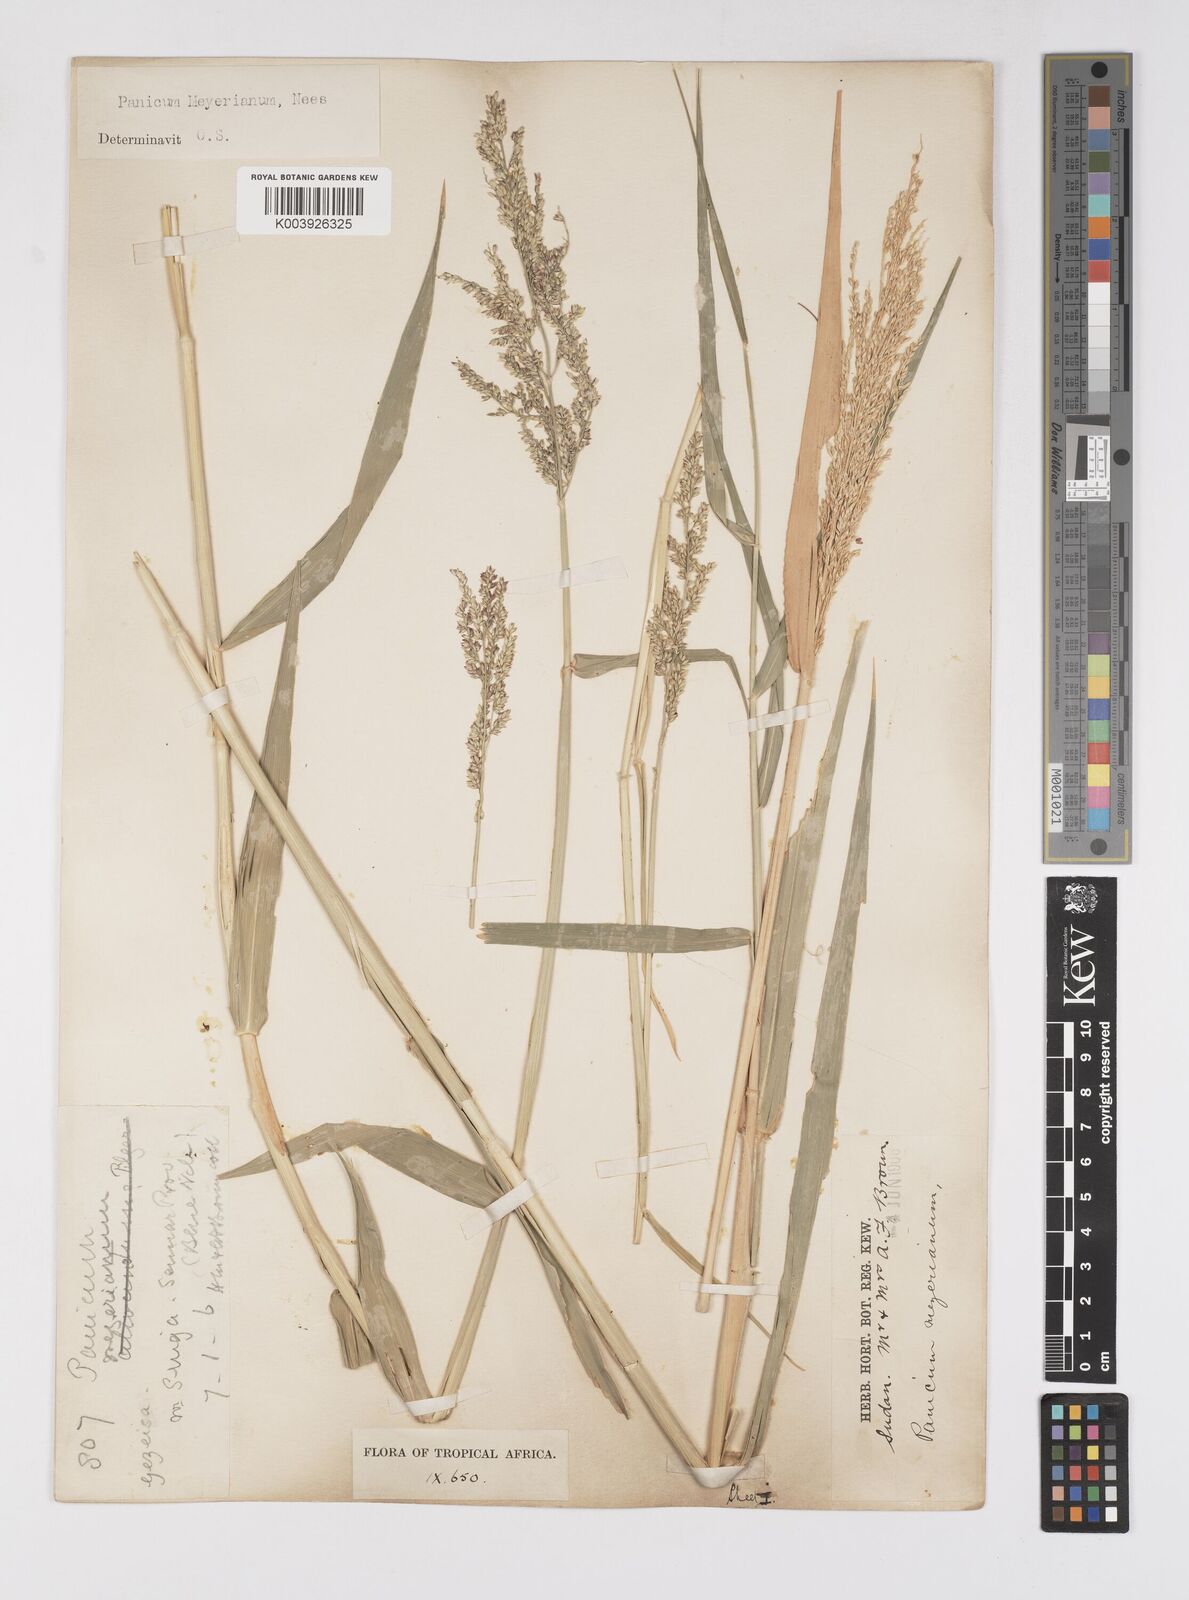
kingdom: Plantae
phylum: Tracheophyta
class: Liliopsida
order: Poales
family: Poaceae
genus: Eriochloa
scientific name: Eriochloa meyeriana
